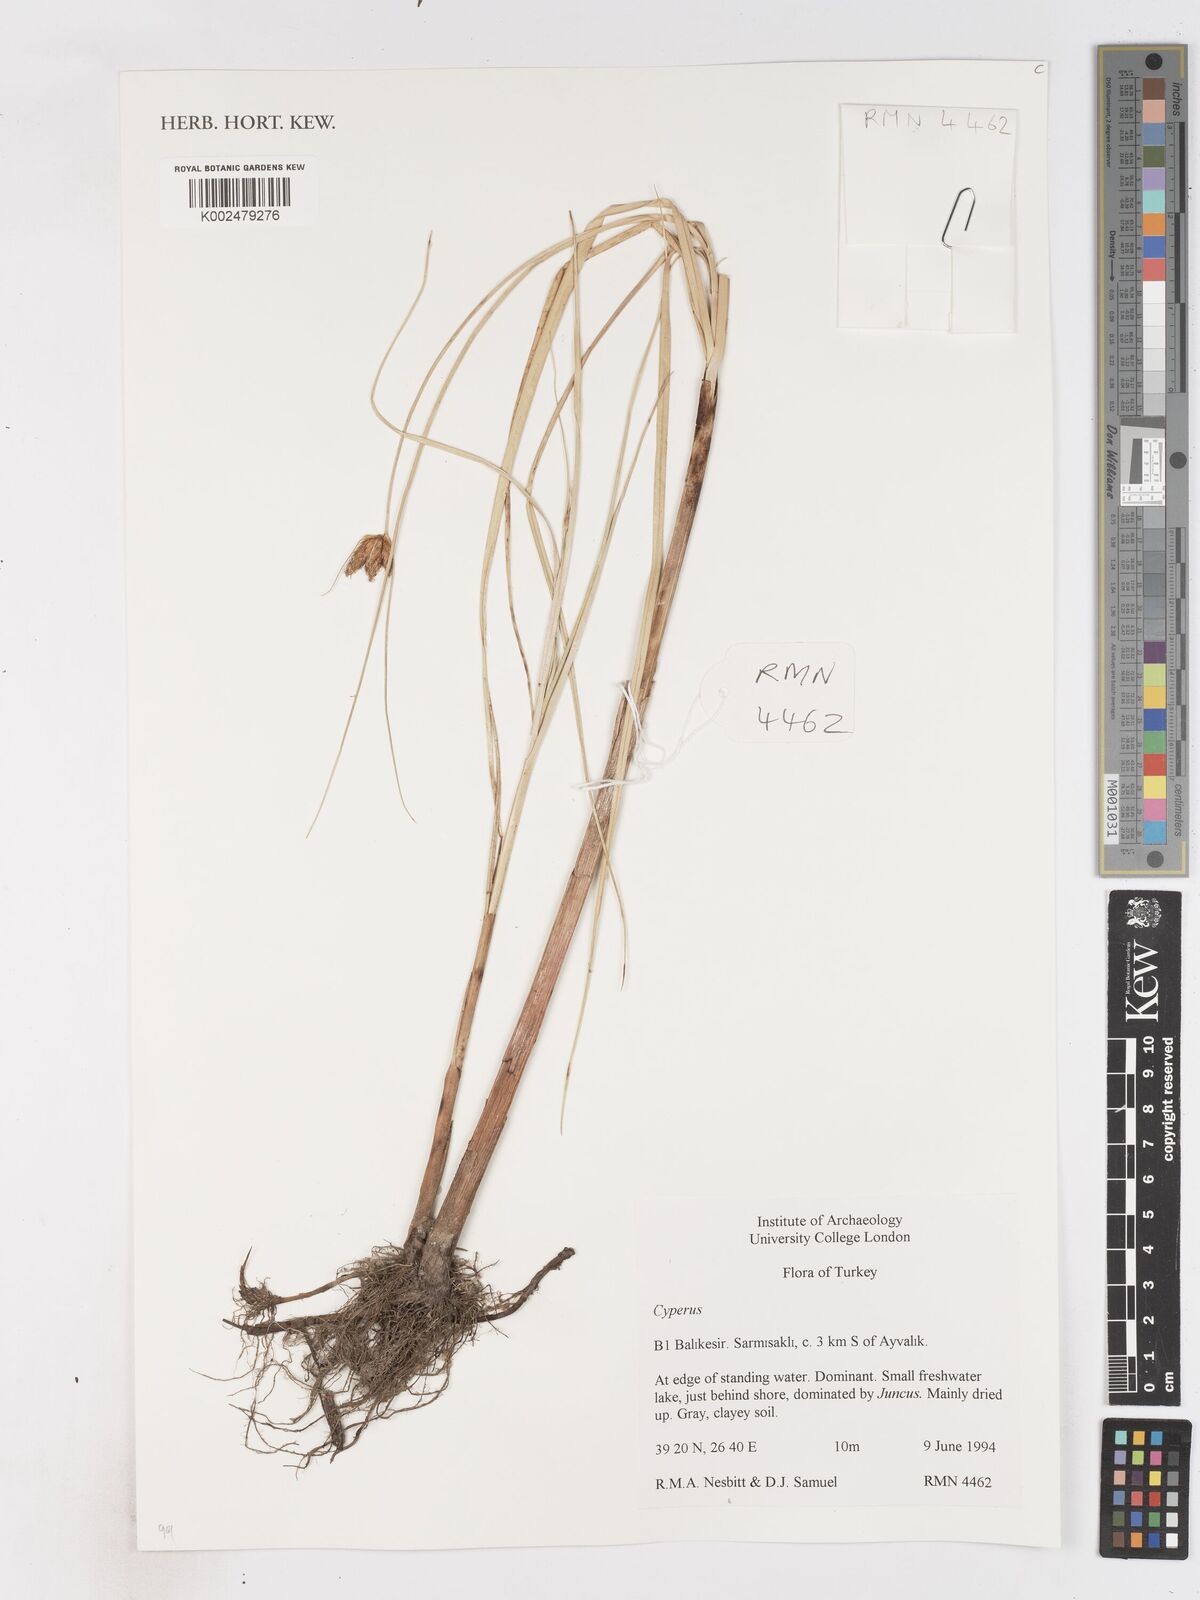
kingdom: Plantae
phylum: Tracheophyta
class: Liliopsida
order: Poales
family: Cyperaceae
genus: Cyperus
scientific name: Cyperus
